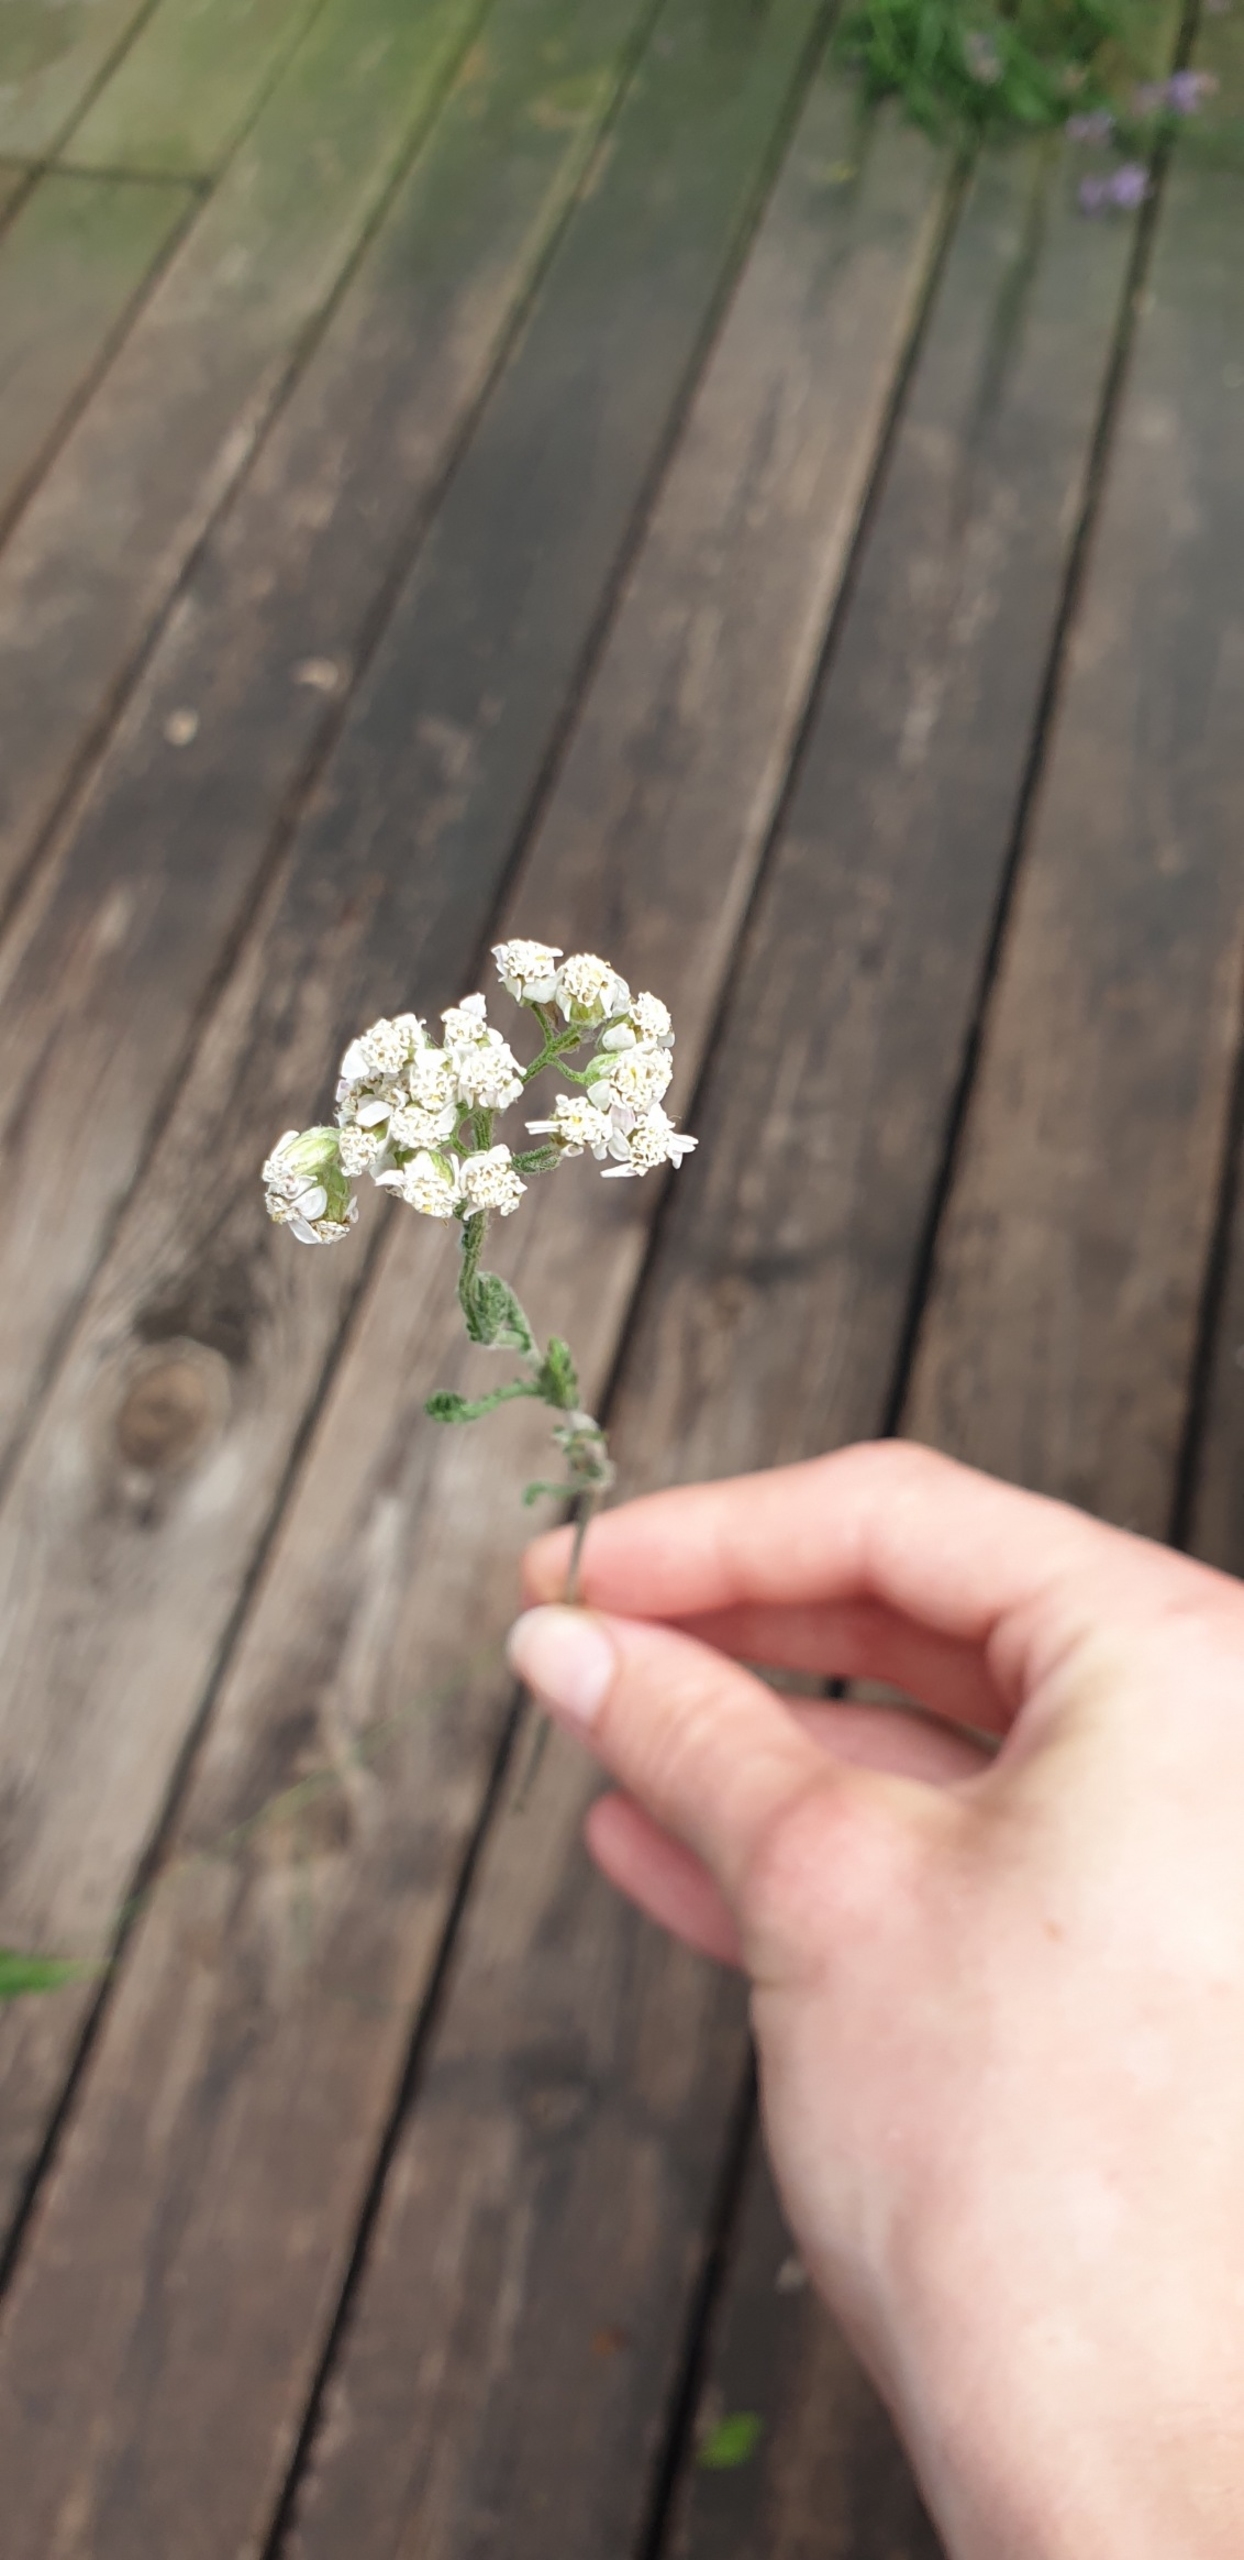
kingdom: Plantae
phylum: Tracheophyta
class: Magnoliopsida
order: Asterales
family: Asteraceae
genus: Achillea
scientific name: Achillea millefolium
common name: Almindelig røllike
